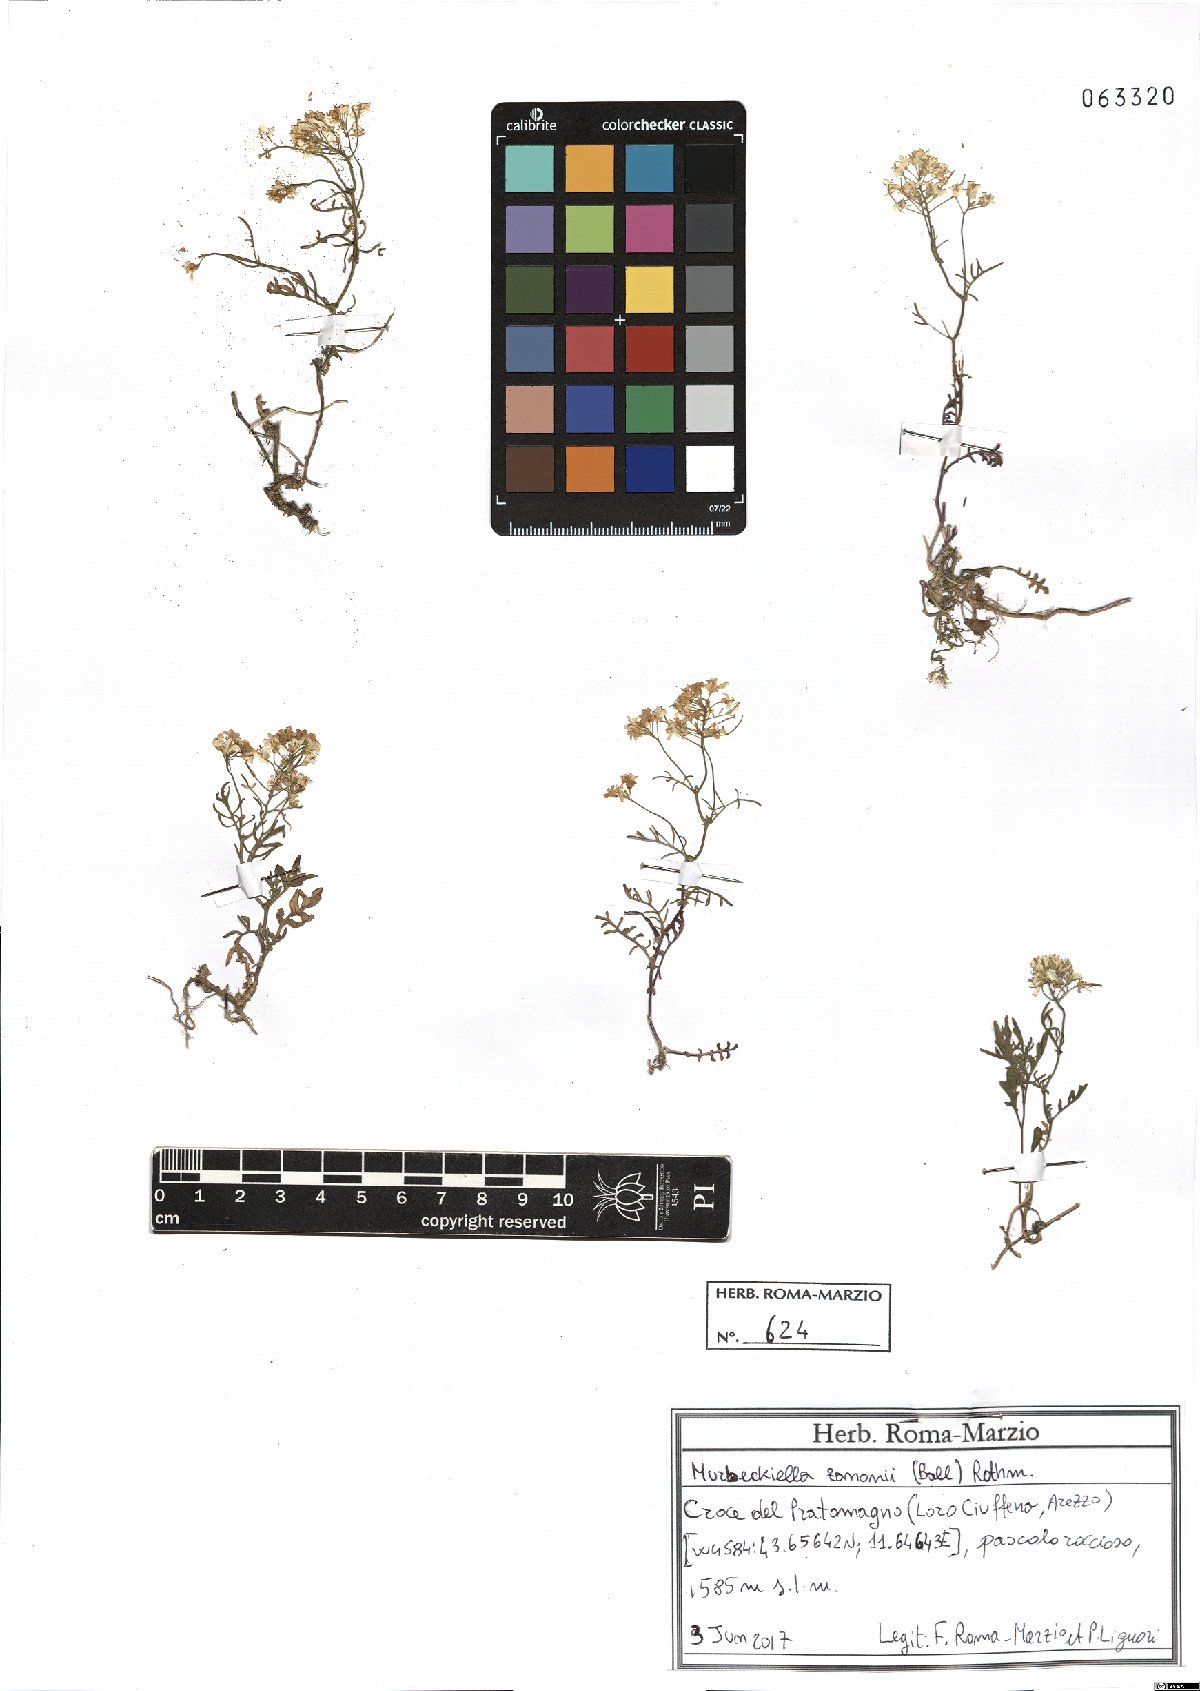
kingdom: Plantae
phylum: Tracheophyta
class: Magnoliopsida
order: Brassicales
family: Brassicaceae
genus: Murbeckiella
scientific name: Murbeckiella zanonii
